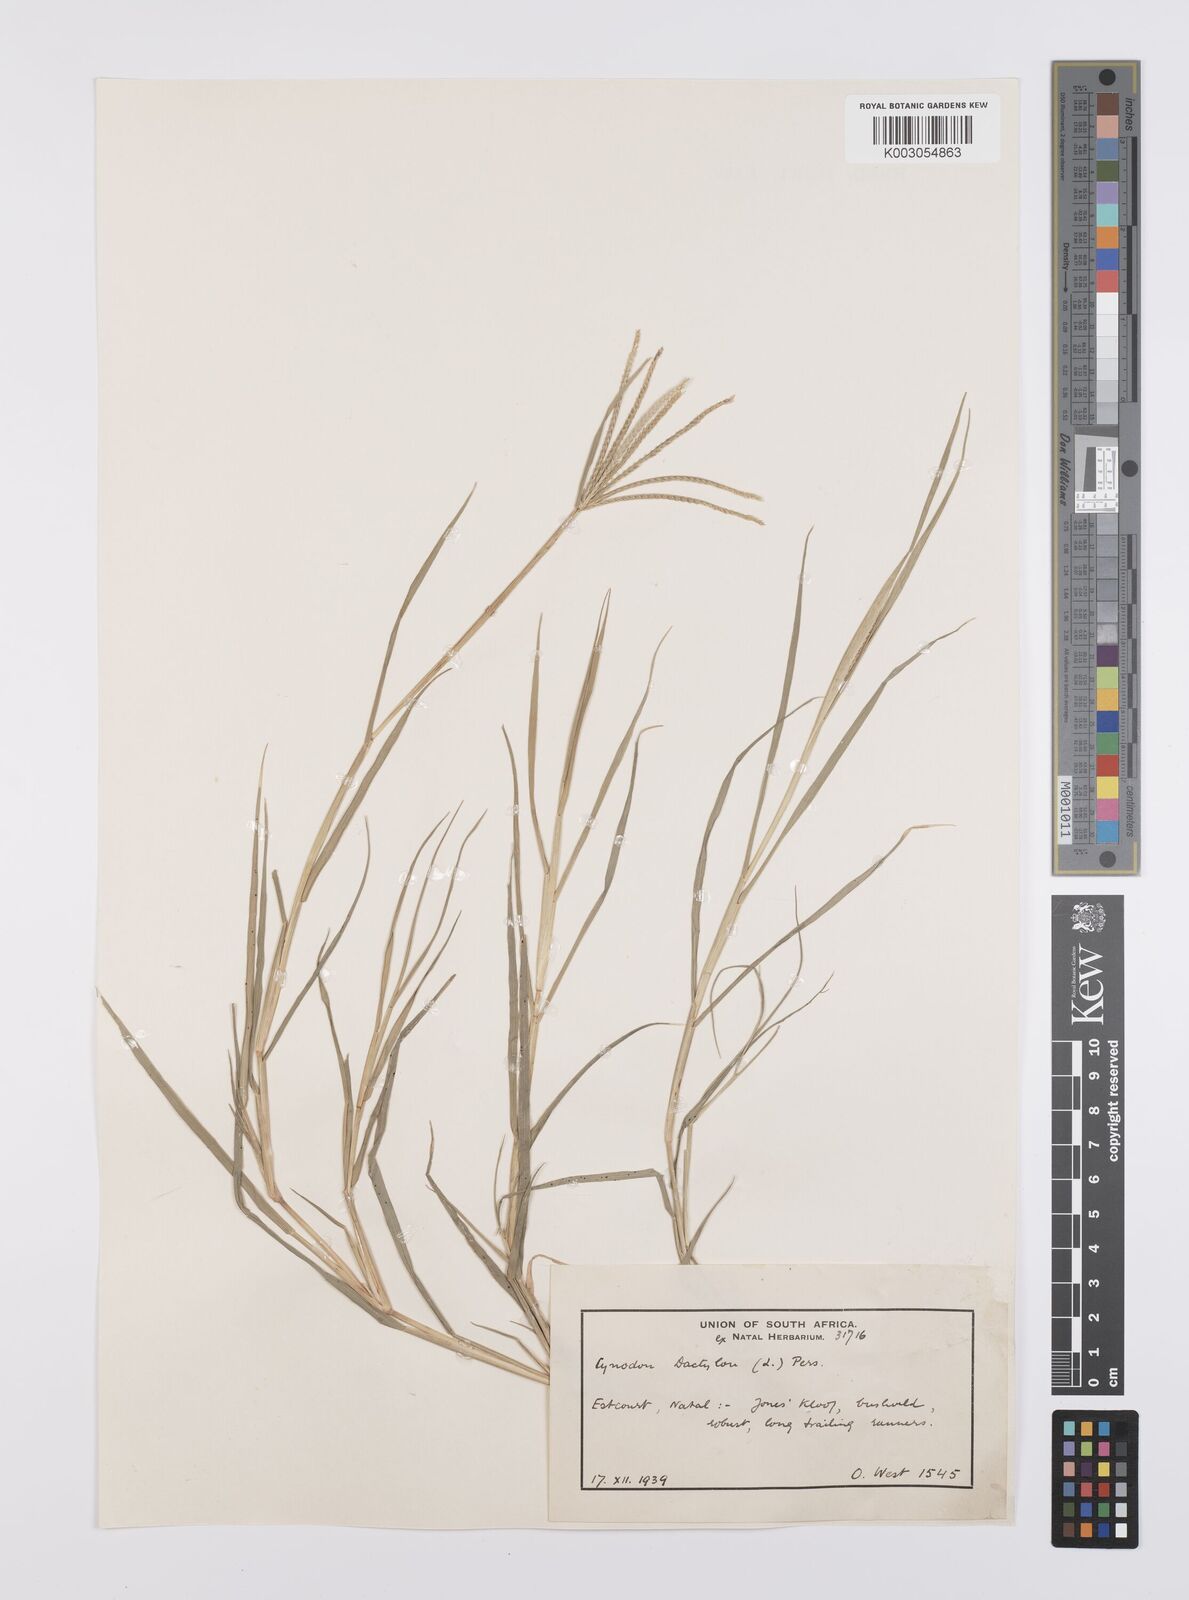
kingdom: Plantae
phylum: Tracheophyta
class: Liliopsida
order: Poales
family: Poaceae
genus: Cynodon
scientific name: Cynodon dactylon
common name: Bermuda grass
